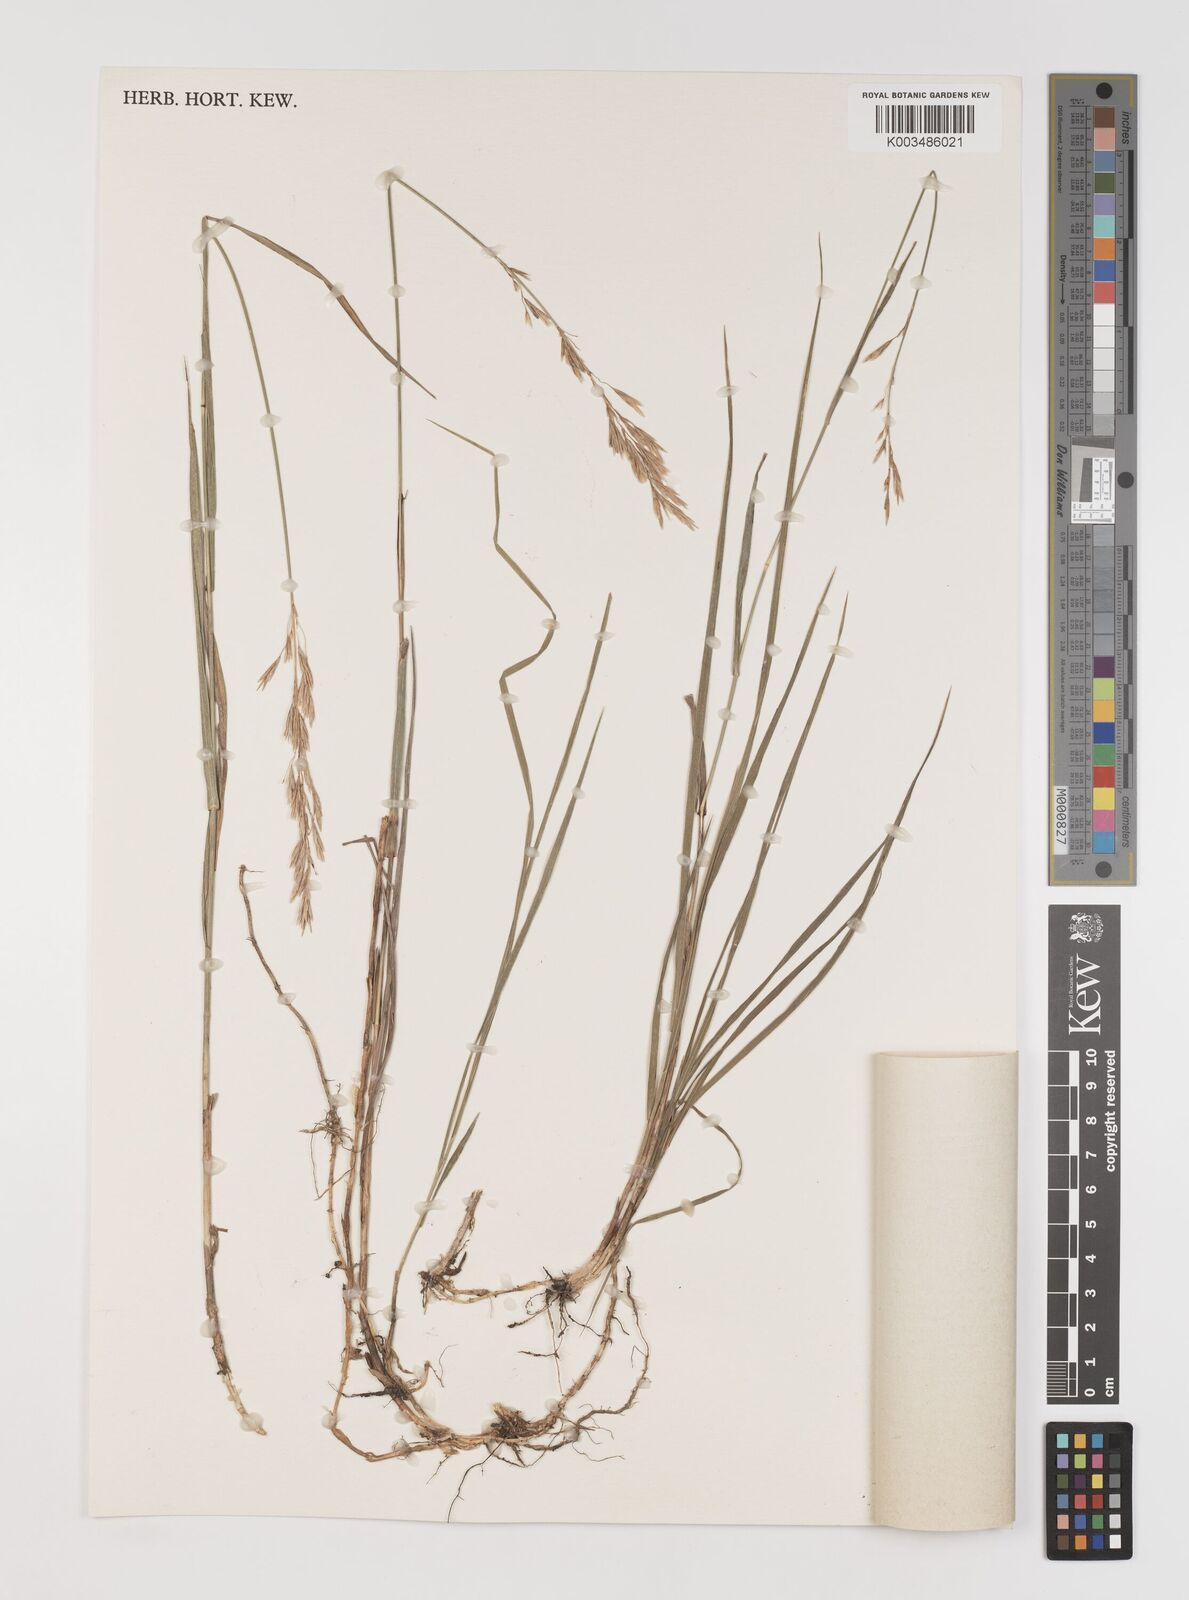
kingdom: Plantae
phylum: Tracheophyta
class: Liliopsida
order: Poales
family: Poaceae
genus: Bromus
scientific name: Bromus inermis
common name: Smooth brome
